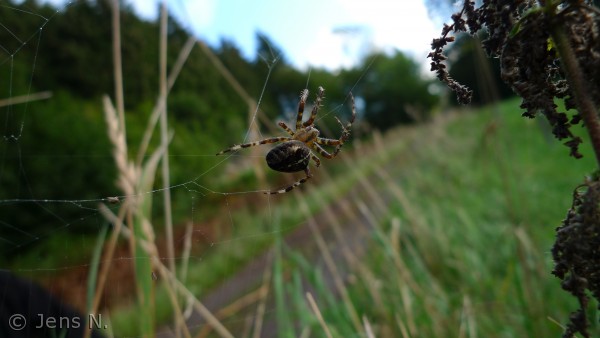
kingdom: Animalia
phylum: Arthropoda
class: Arachnida
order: Araneae
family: Araneidae
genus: Araneus
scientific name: Araneus diadematus
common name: Korsedderkop
